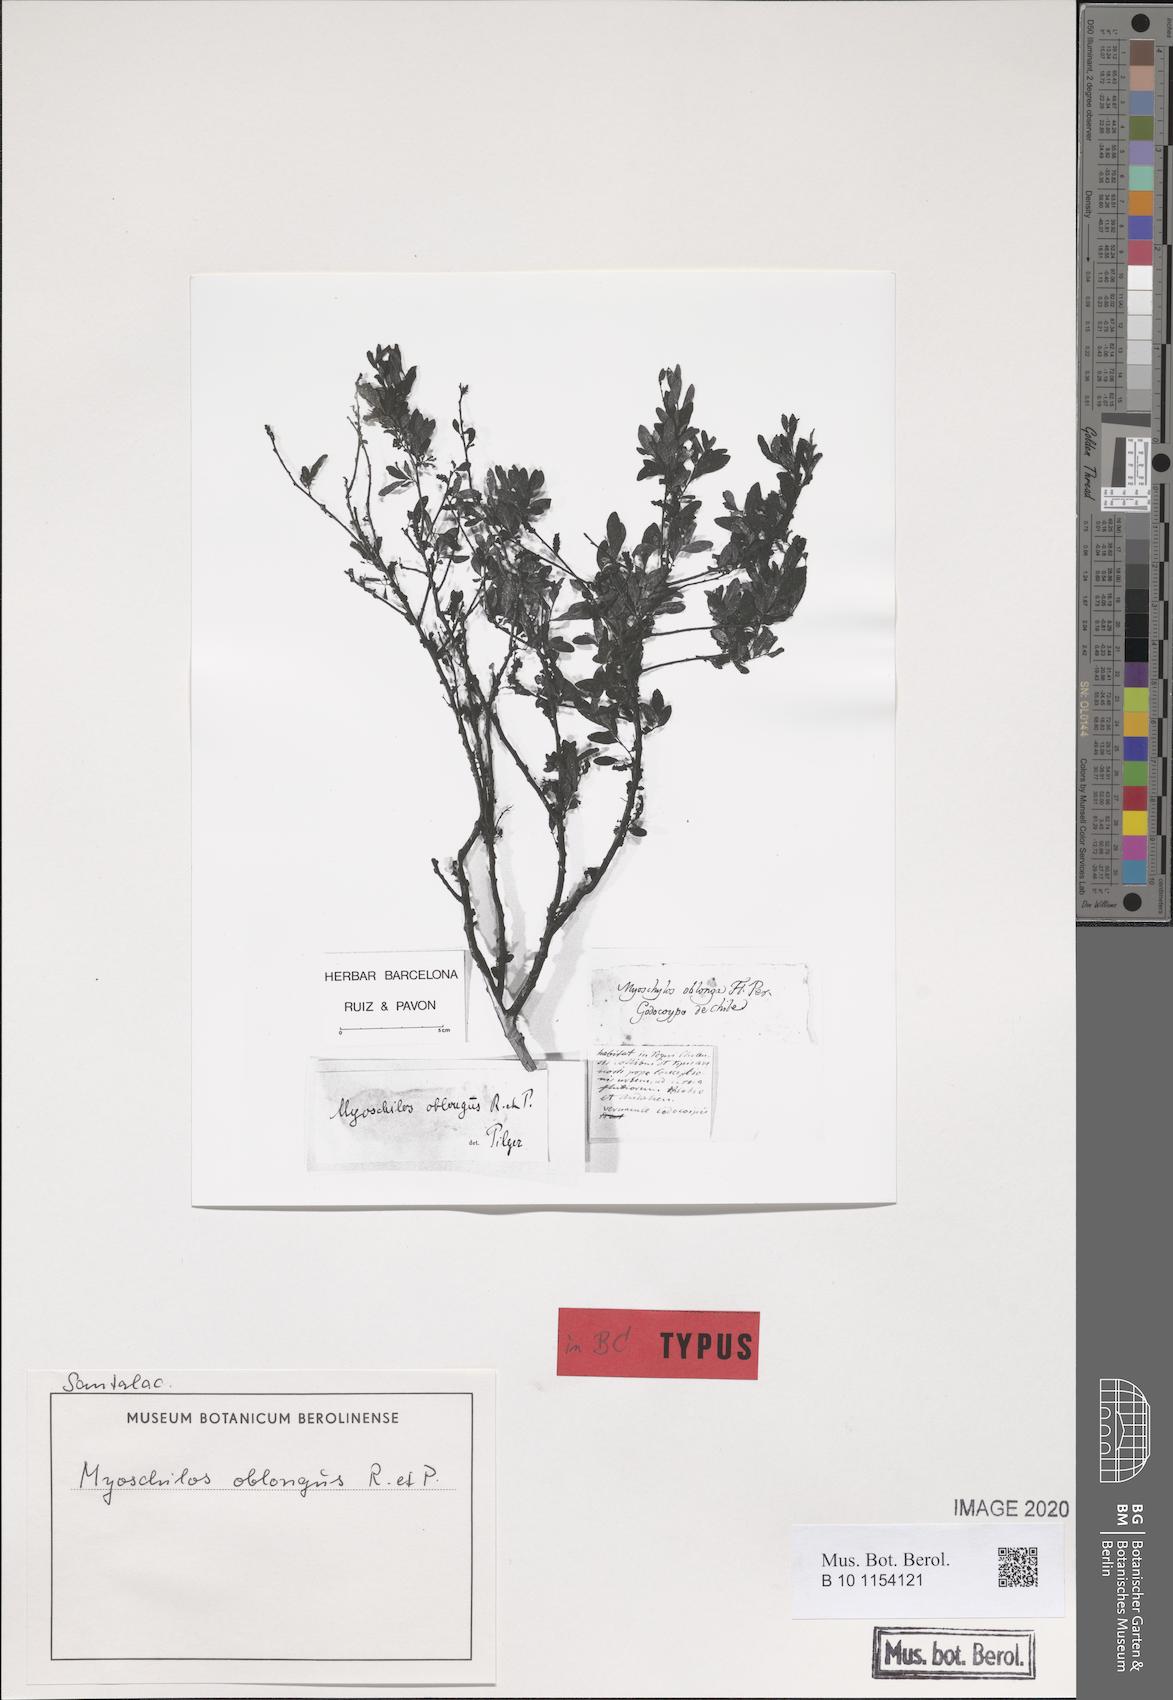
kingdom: Plantae
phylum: Tracheophyta
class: Magnoliopsida
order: Santalales
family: Santalaceae
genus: Myoschilos
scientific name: Myoschilos oblongum
